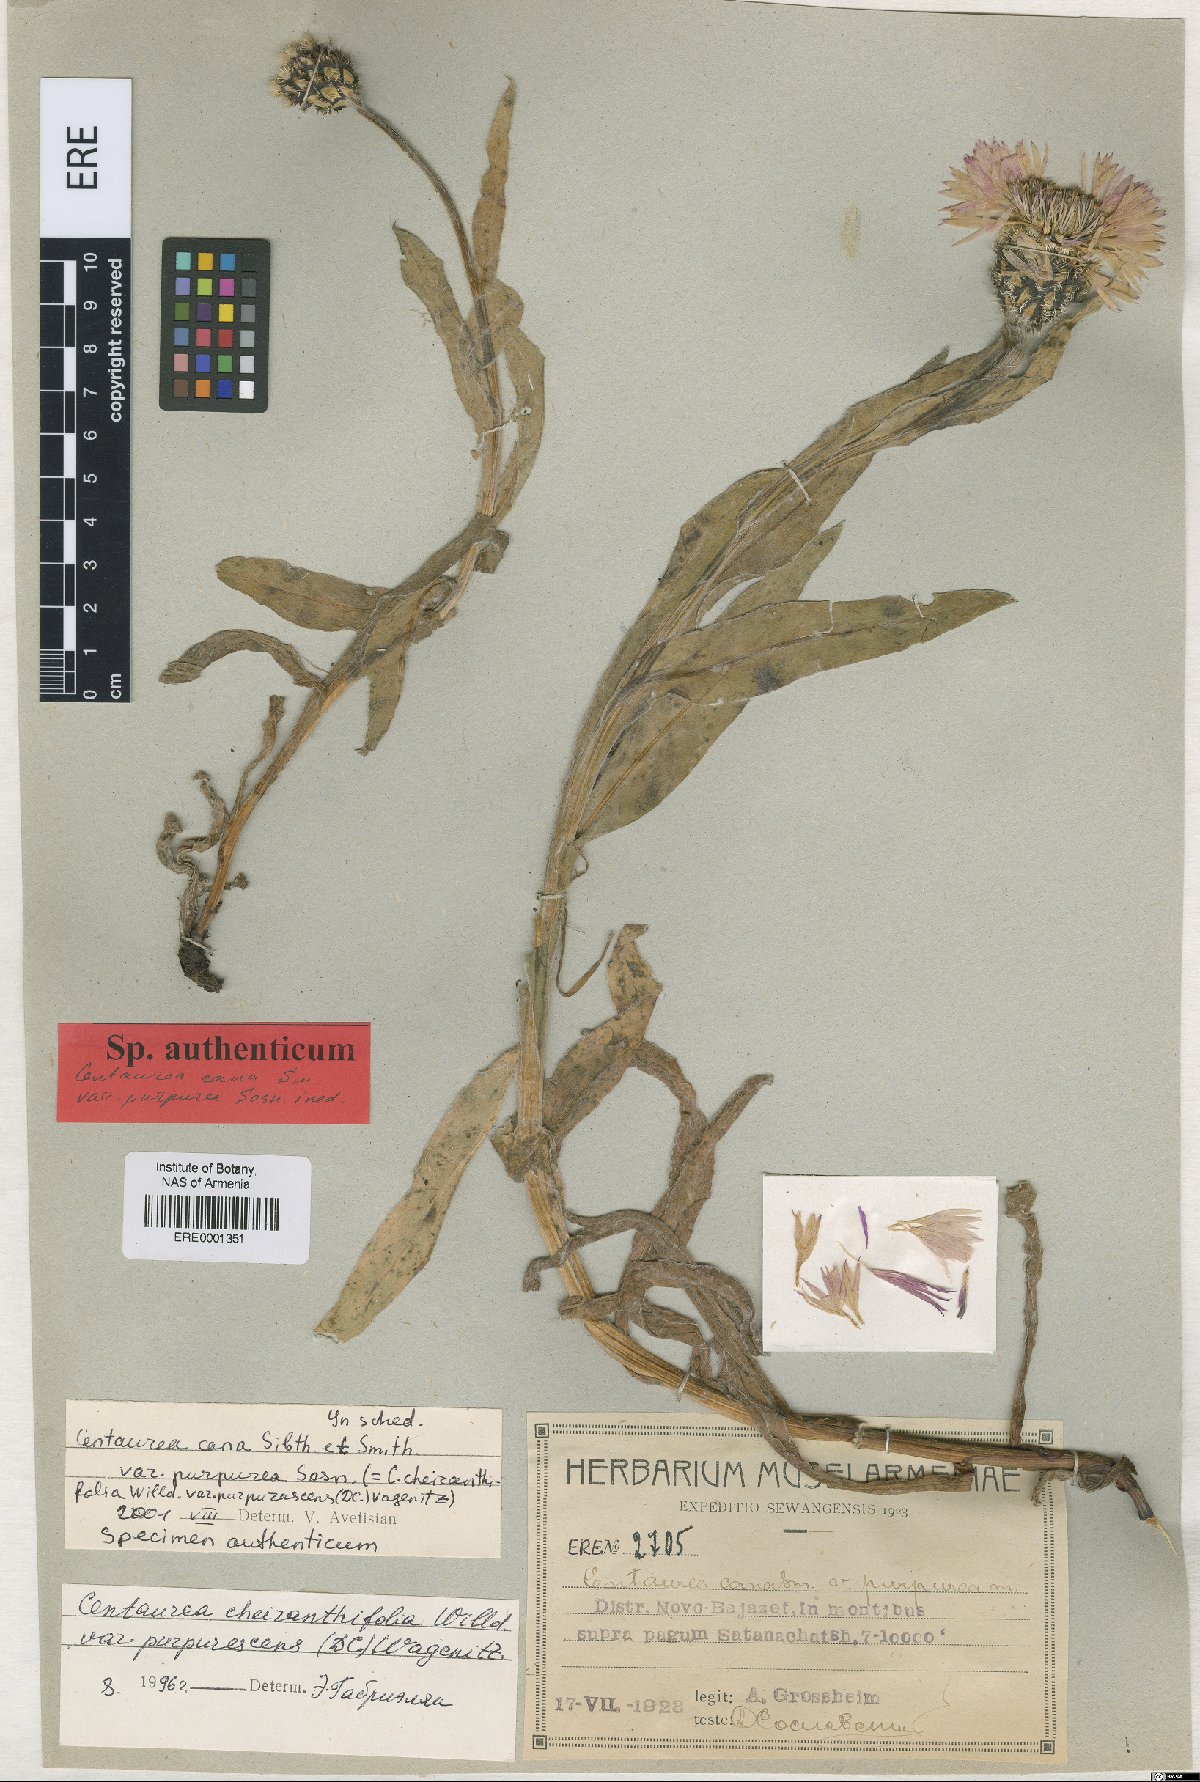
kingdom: Plantae
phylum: Tracheophyta
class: Magnoliopsida
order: Asterales
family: Asteraceae
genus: Centaurea
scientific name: Centaurea triumfettii
